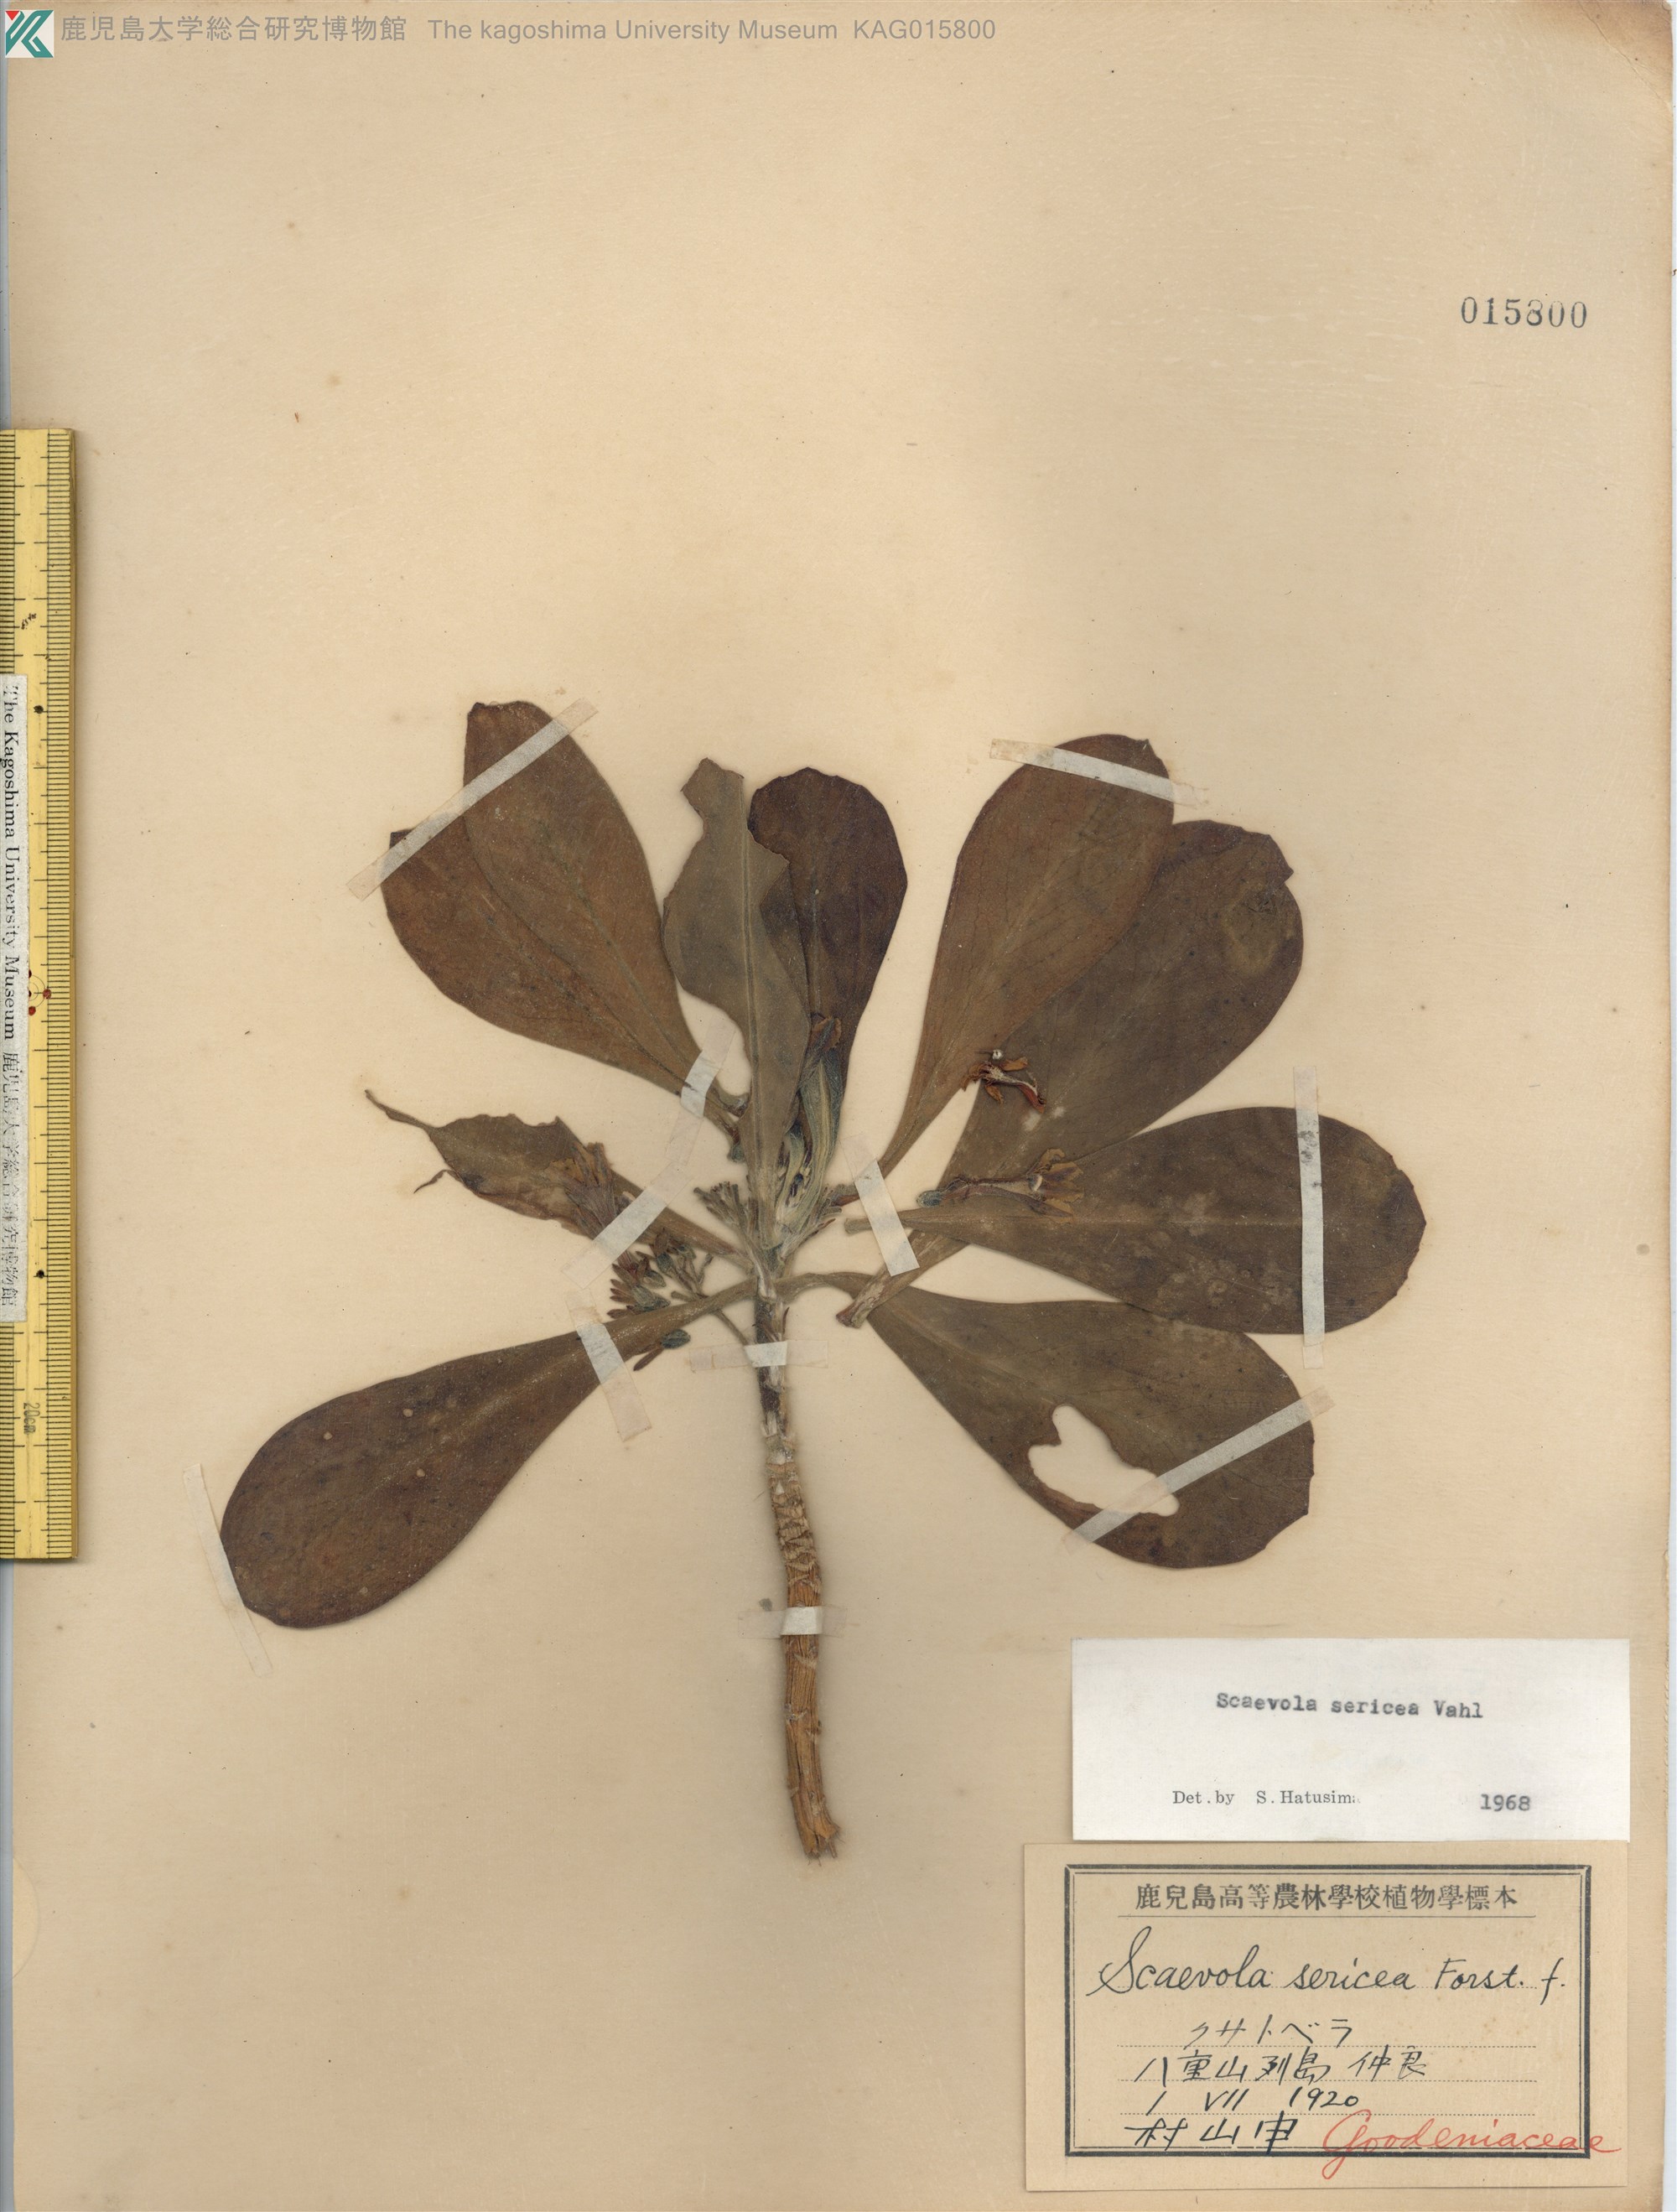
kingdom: Plantae
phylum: Tracheophyta
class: Magnoliopsida
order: Asterales
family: Goodeniaceae
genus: Scaevola
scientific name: Scaevola taccada
